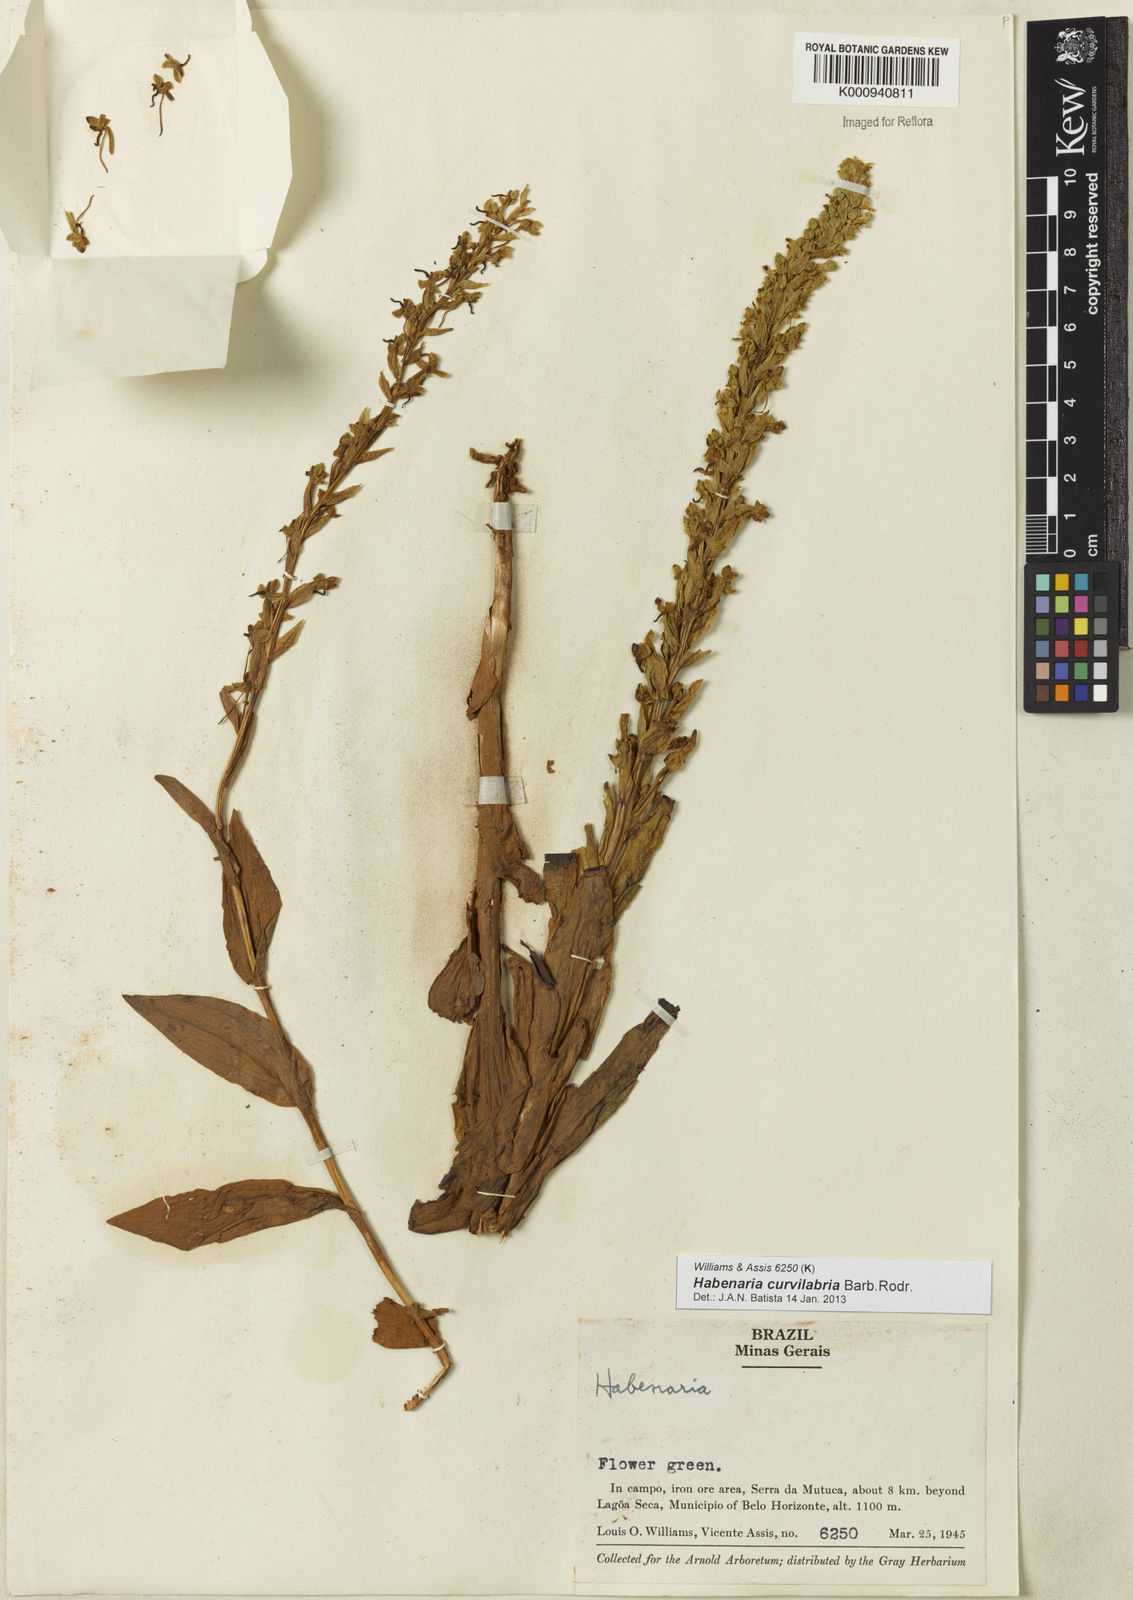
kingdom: Plantae
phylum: Tracheophyta
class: Liliopsida
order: Asparagales
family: Orchidaceae
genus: Habenaria
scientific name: Habenaria curvilabra
